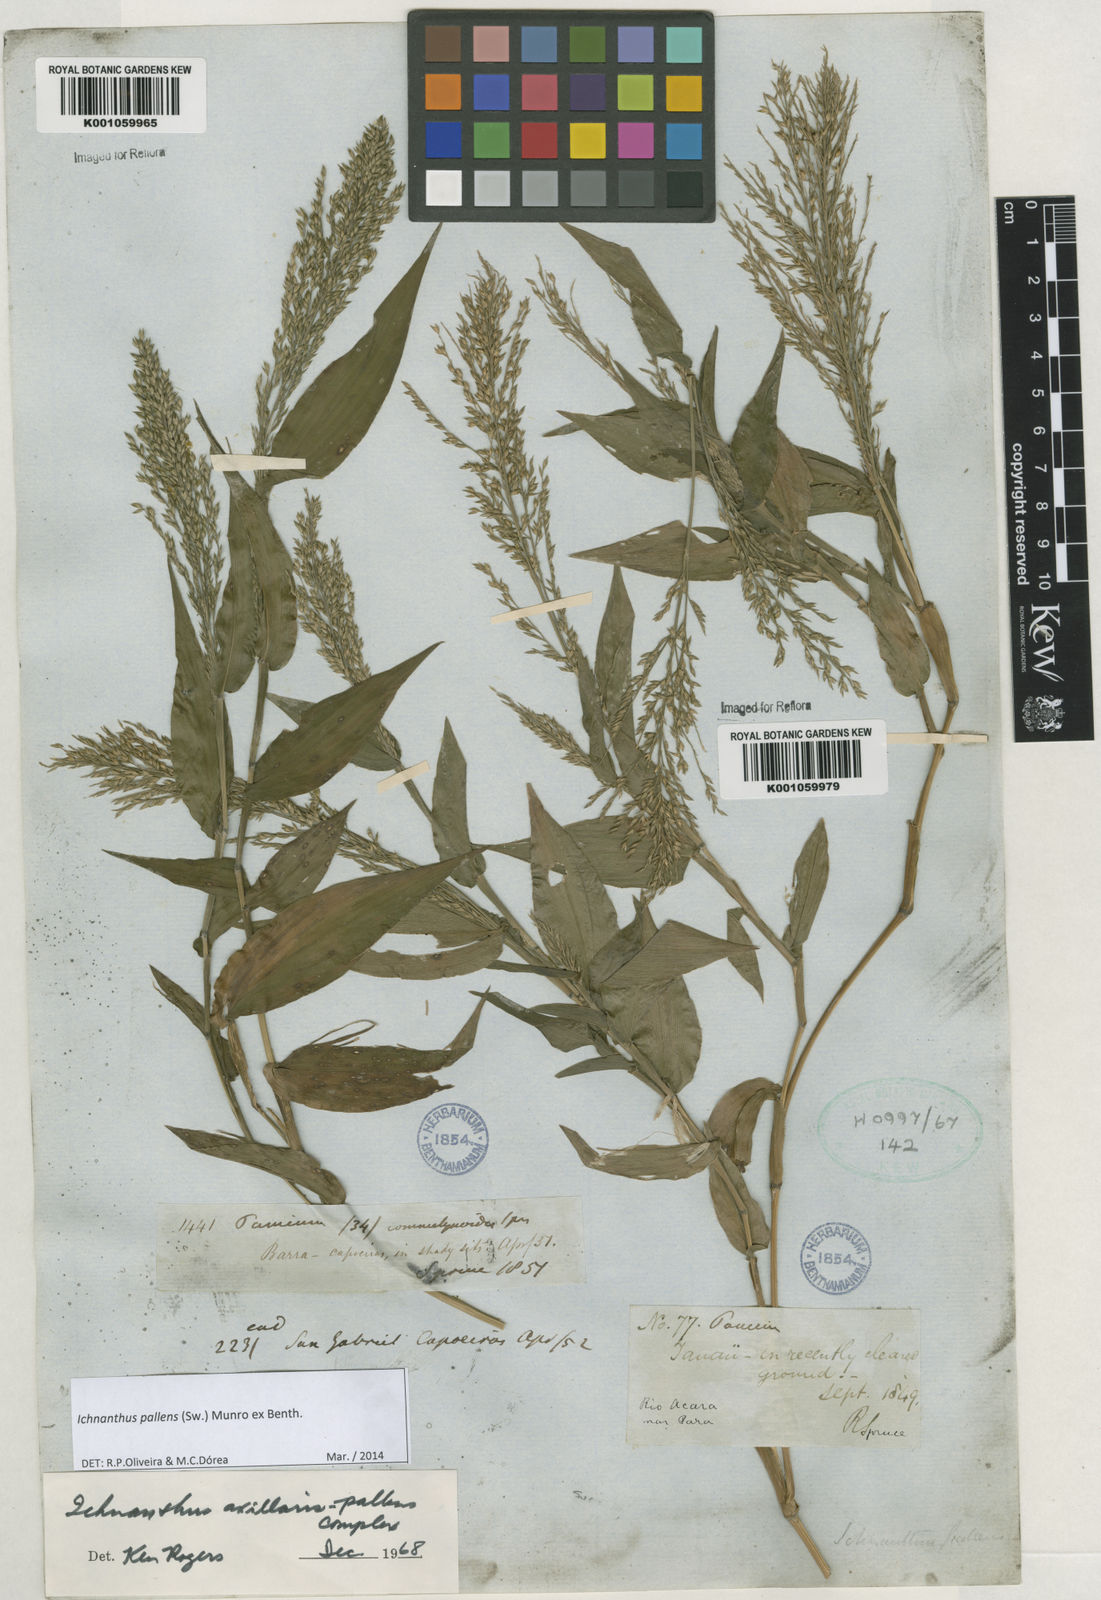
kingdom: Plantae
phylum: Tracheophyta
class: Liliopsida
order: Poales
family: Poaceae
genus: Ichnanthus
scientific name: Ichnanthus pallens
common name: Water grass
